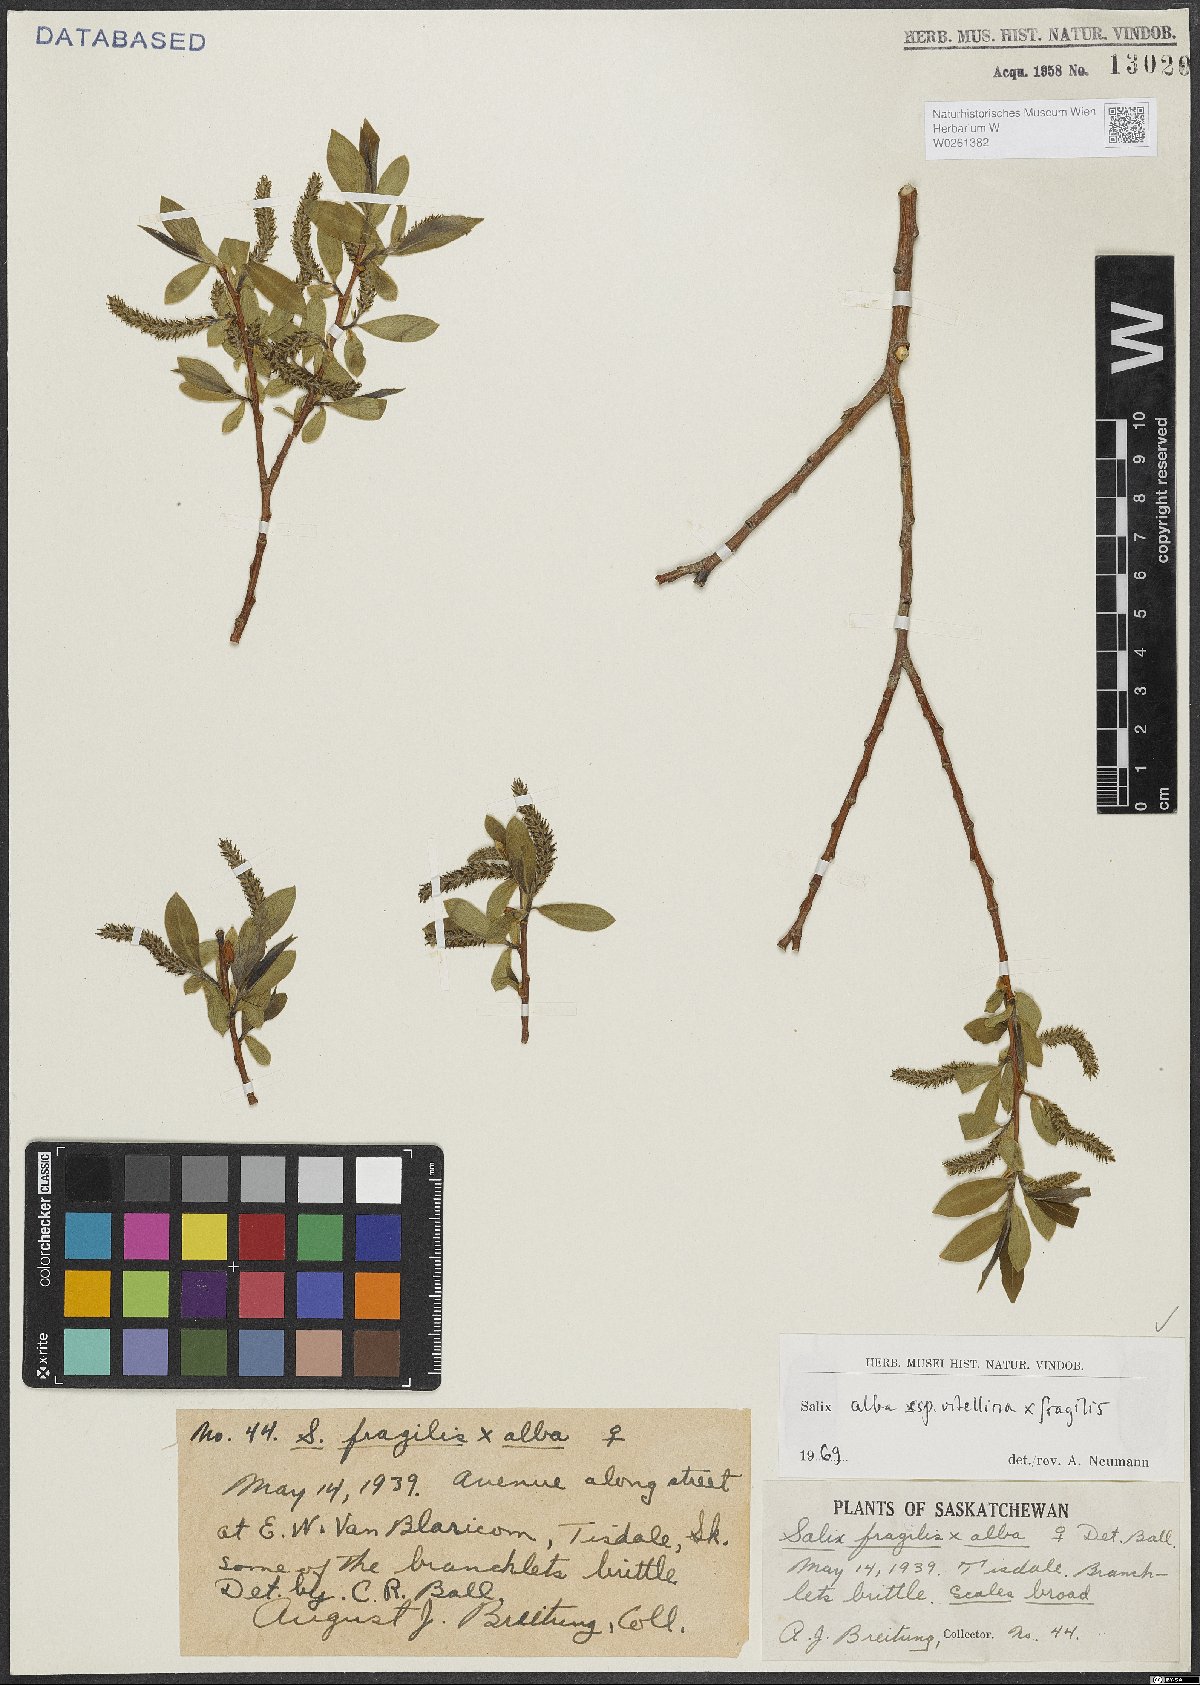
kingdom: Plantae
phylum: Tracheophyta
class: Magnoliopsida
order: Malpighiales
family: Salicaceae
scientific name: Salicaceae
